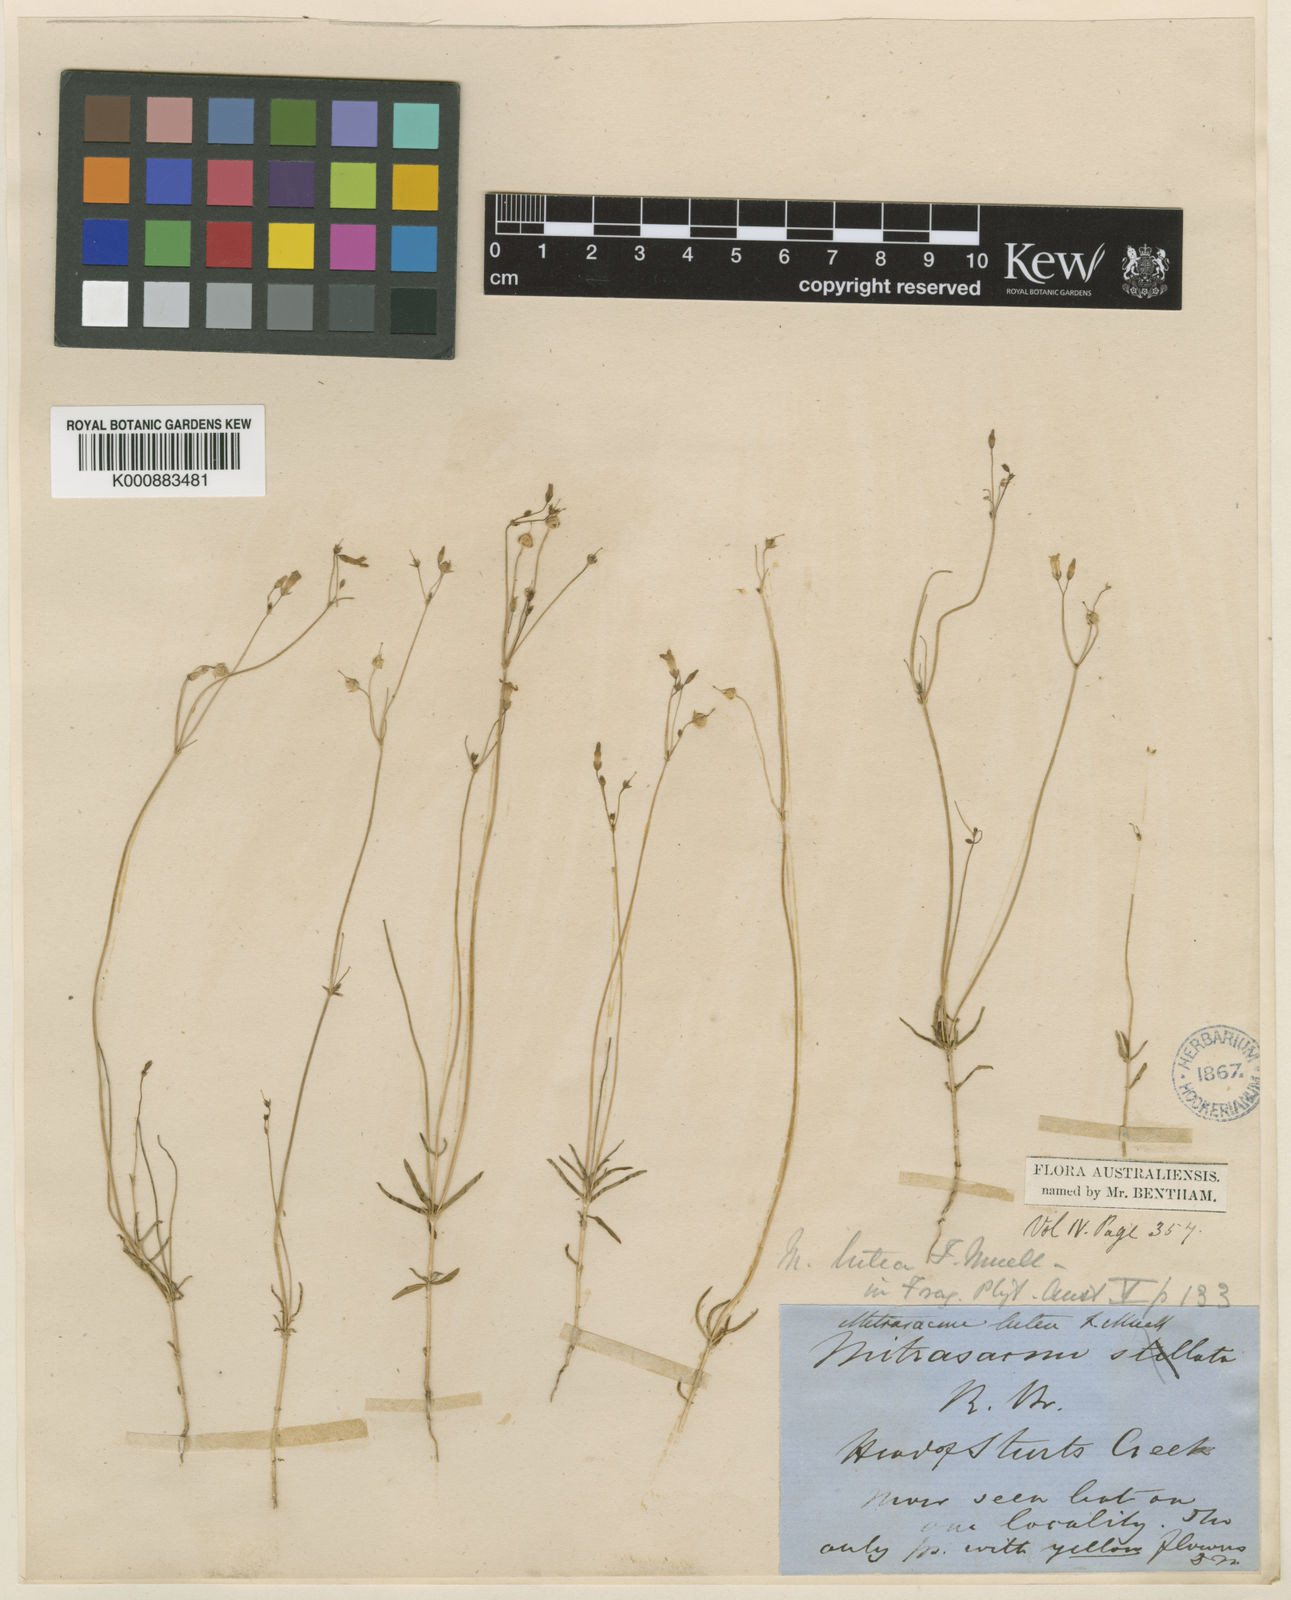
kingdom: Plantae
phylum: Tracheophyta
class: Magnoliopsida
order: Gentianales
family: Loganiaceae
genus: Mitrasacme
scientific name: Mitrasacme lutea
